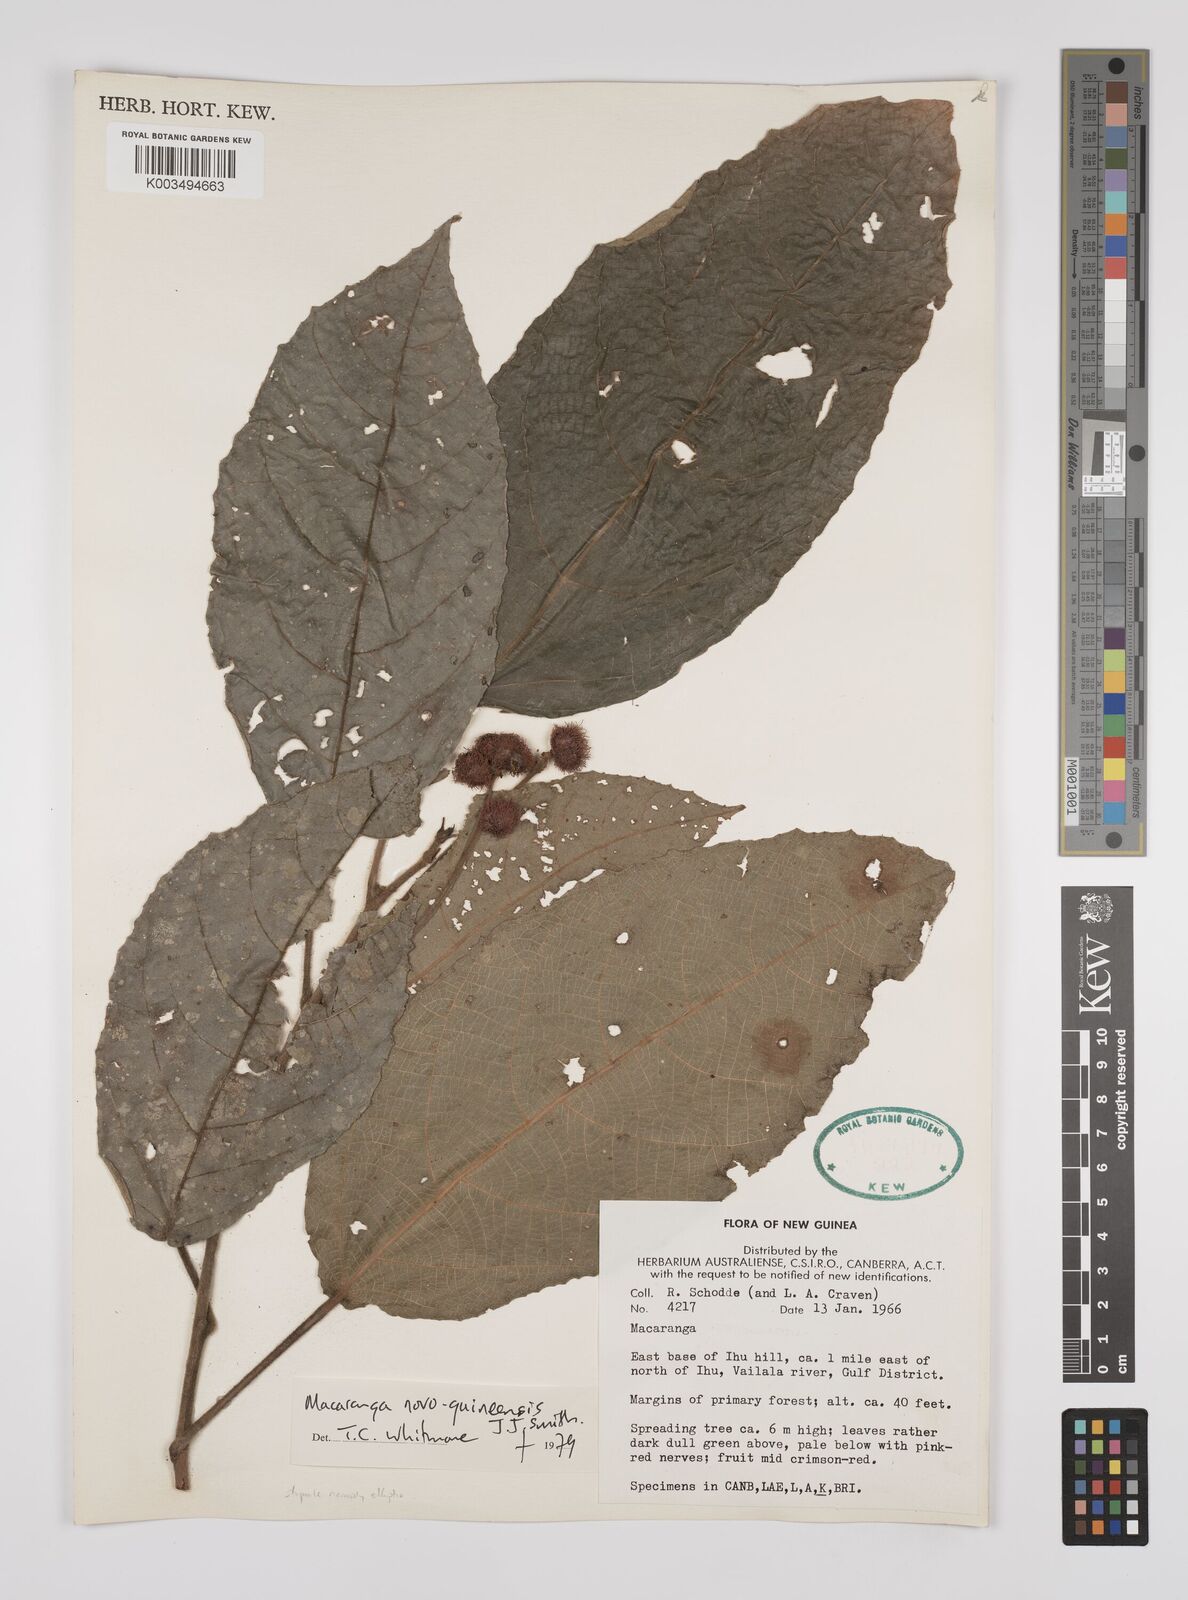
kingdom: Plantae
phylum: Tracheophyta
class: Magnoliopsida
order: Malpighiales
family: Euphorbiaceae
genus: Macaranga
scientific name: Macaranga novoguineensis
